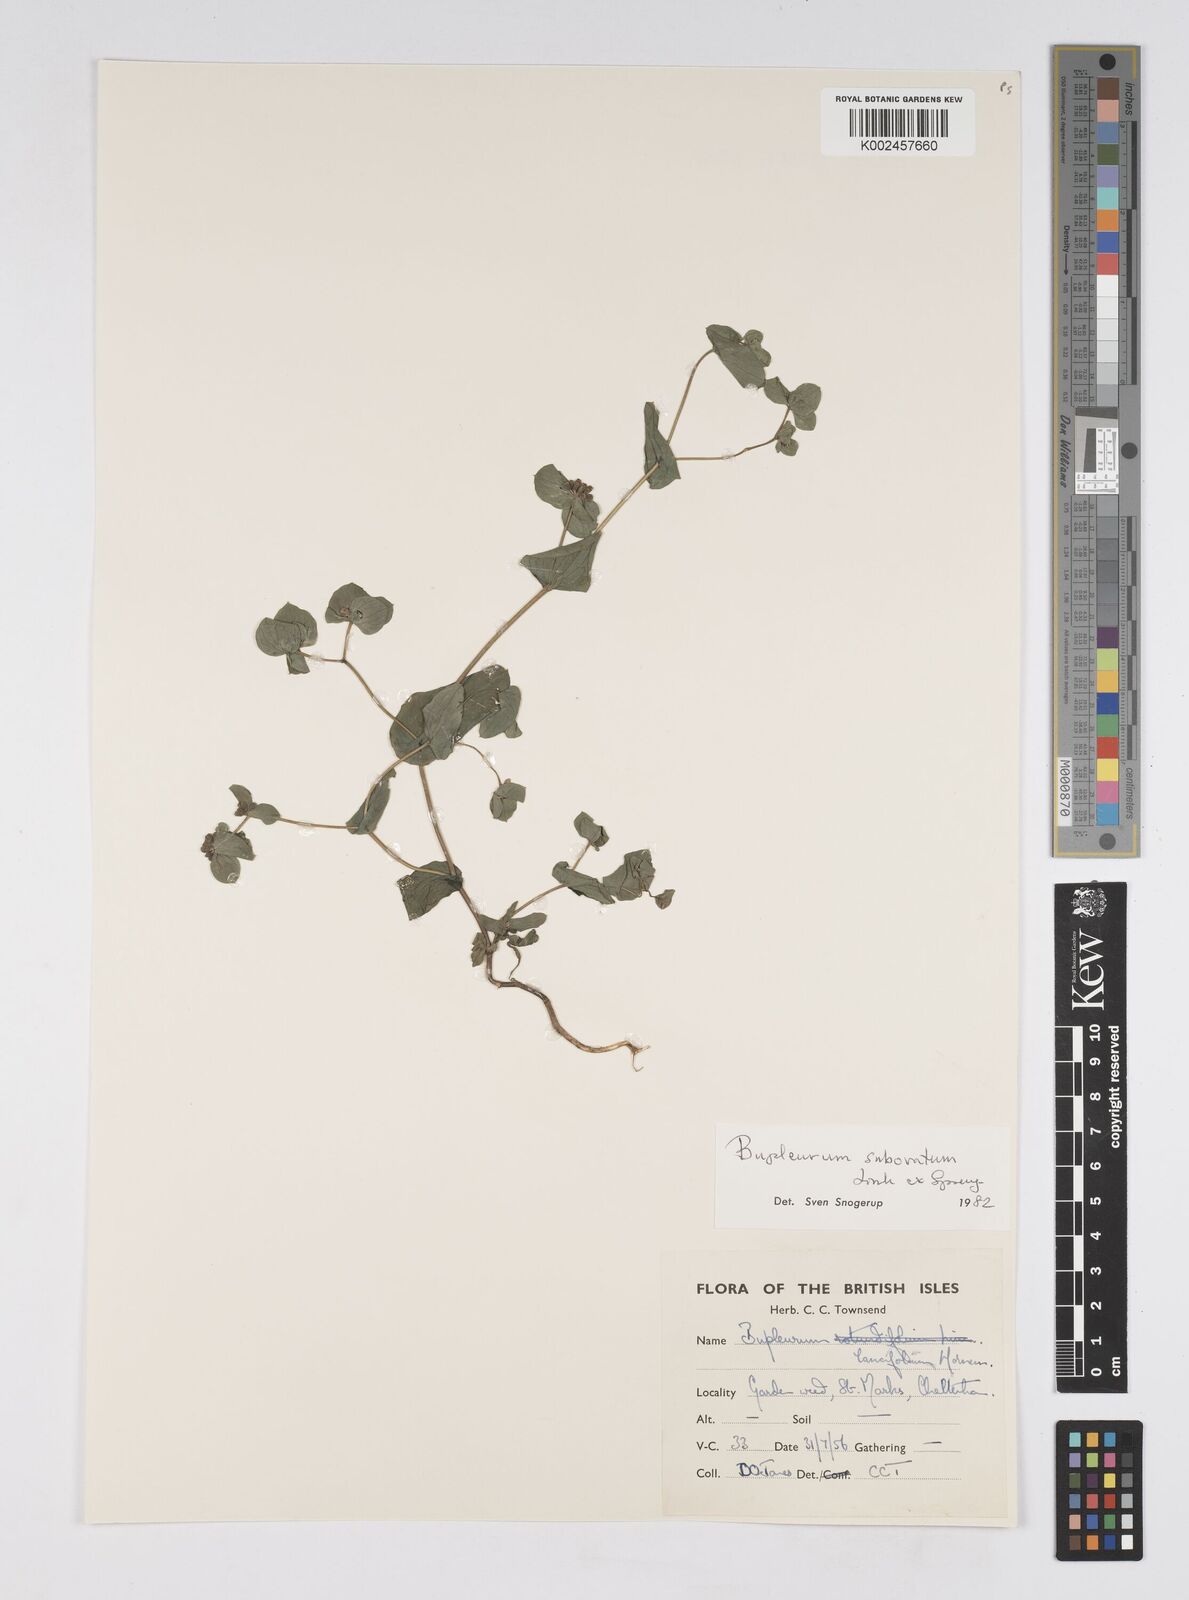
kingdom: Plantae
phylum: Tracheophyta
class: Magnoliopsida
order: Apiales
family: Apiaceae
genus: Bupleurum
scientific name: Bupleurum subovatum
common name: False thorow-wax
